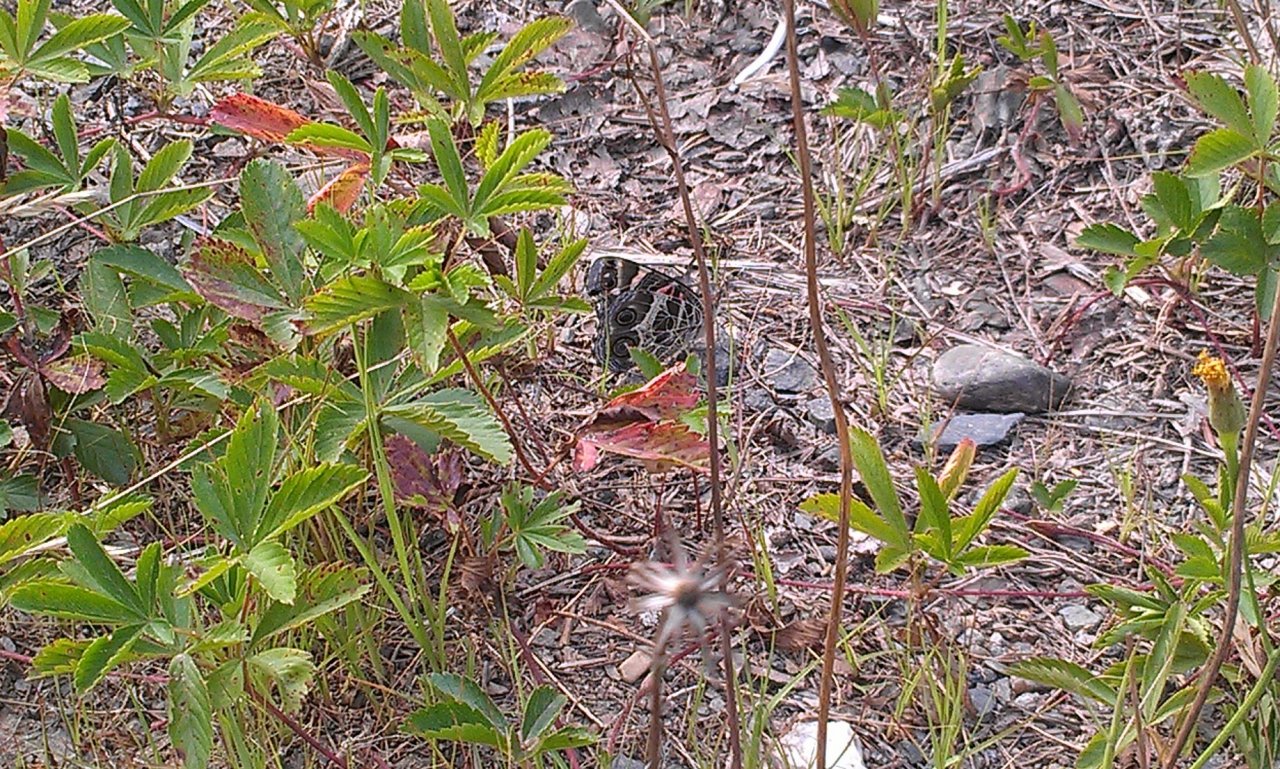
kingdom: Animalia
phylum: Arthropoda
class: Insecta
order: Lepidoptera
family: Nymphalidae
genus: Vanessa
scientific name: Vanessa virginiensis
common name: American Lady
